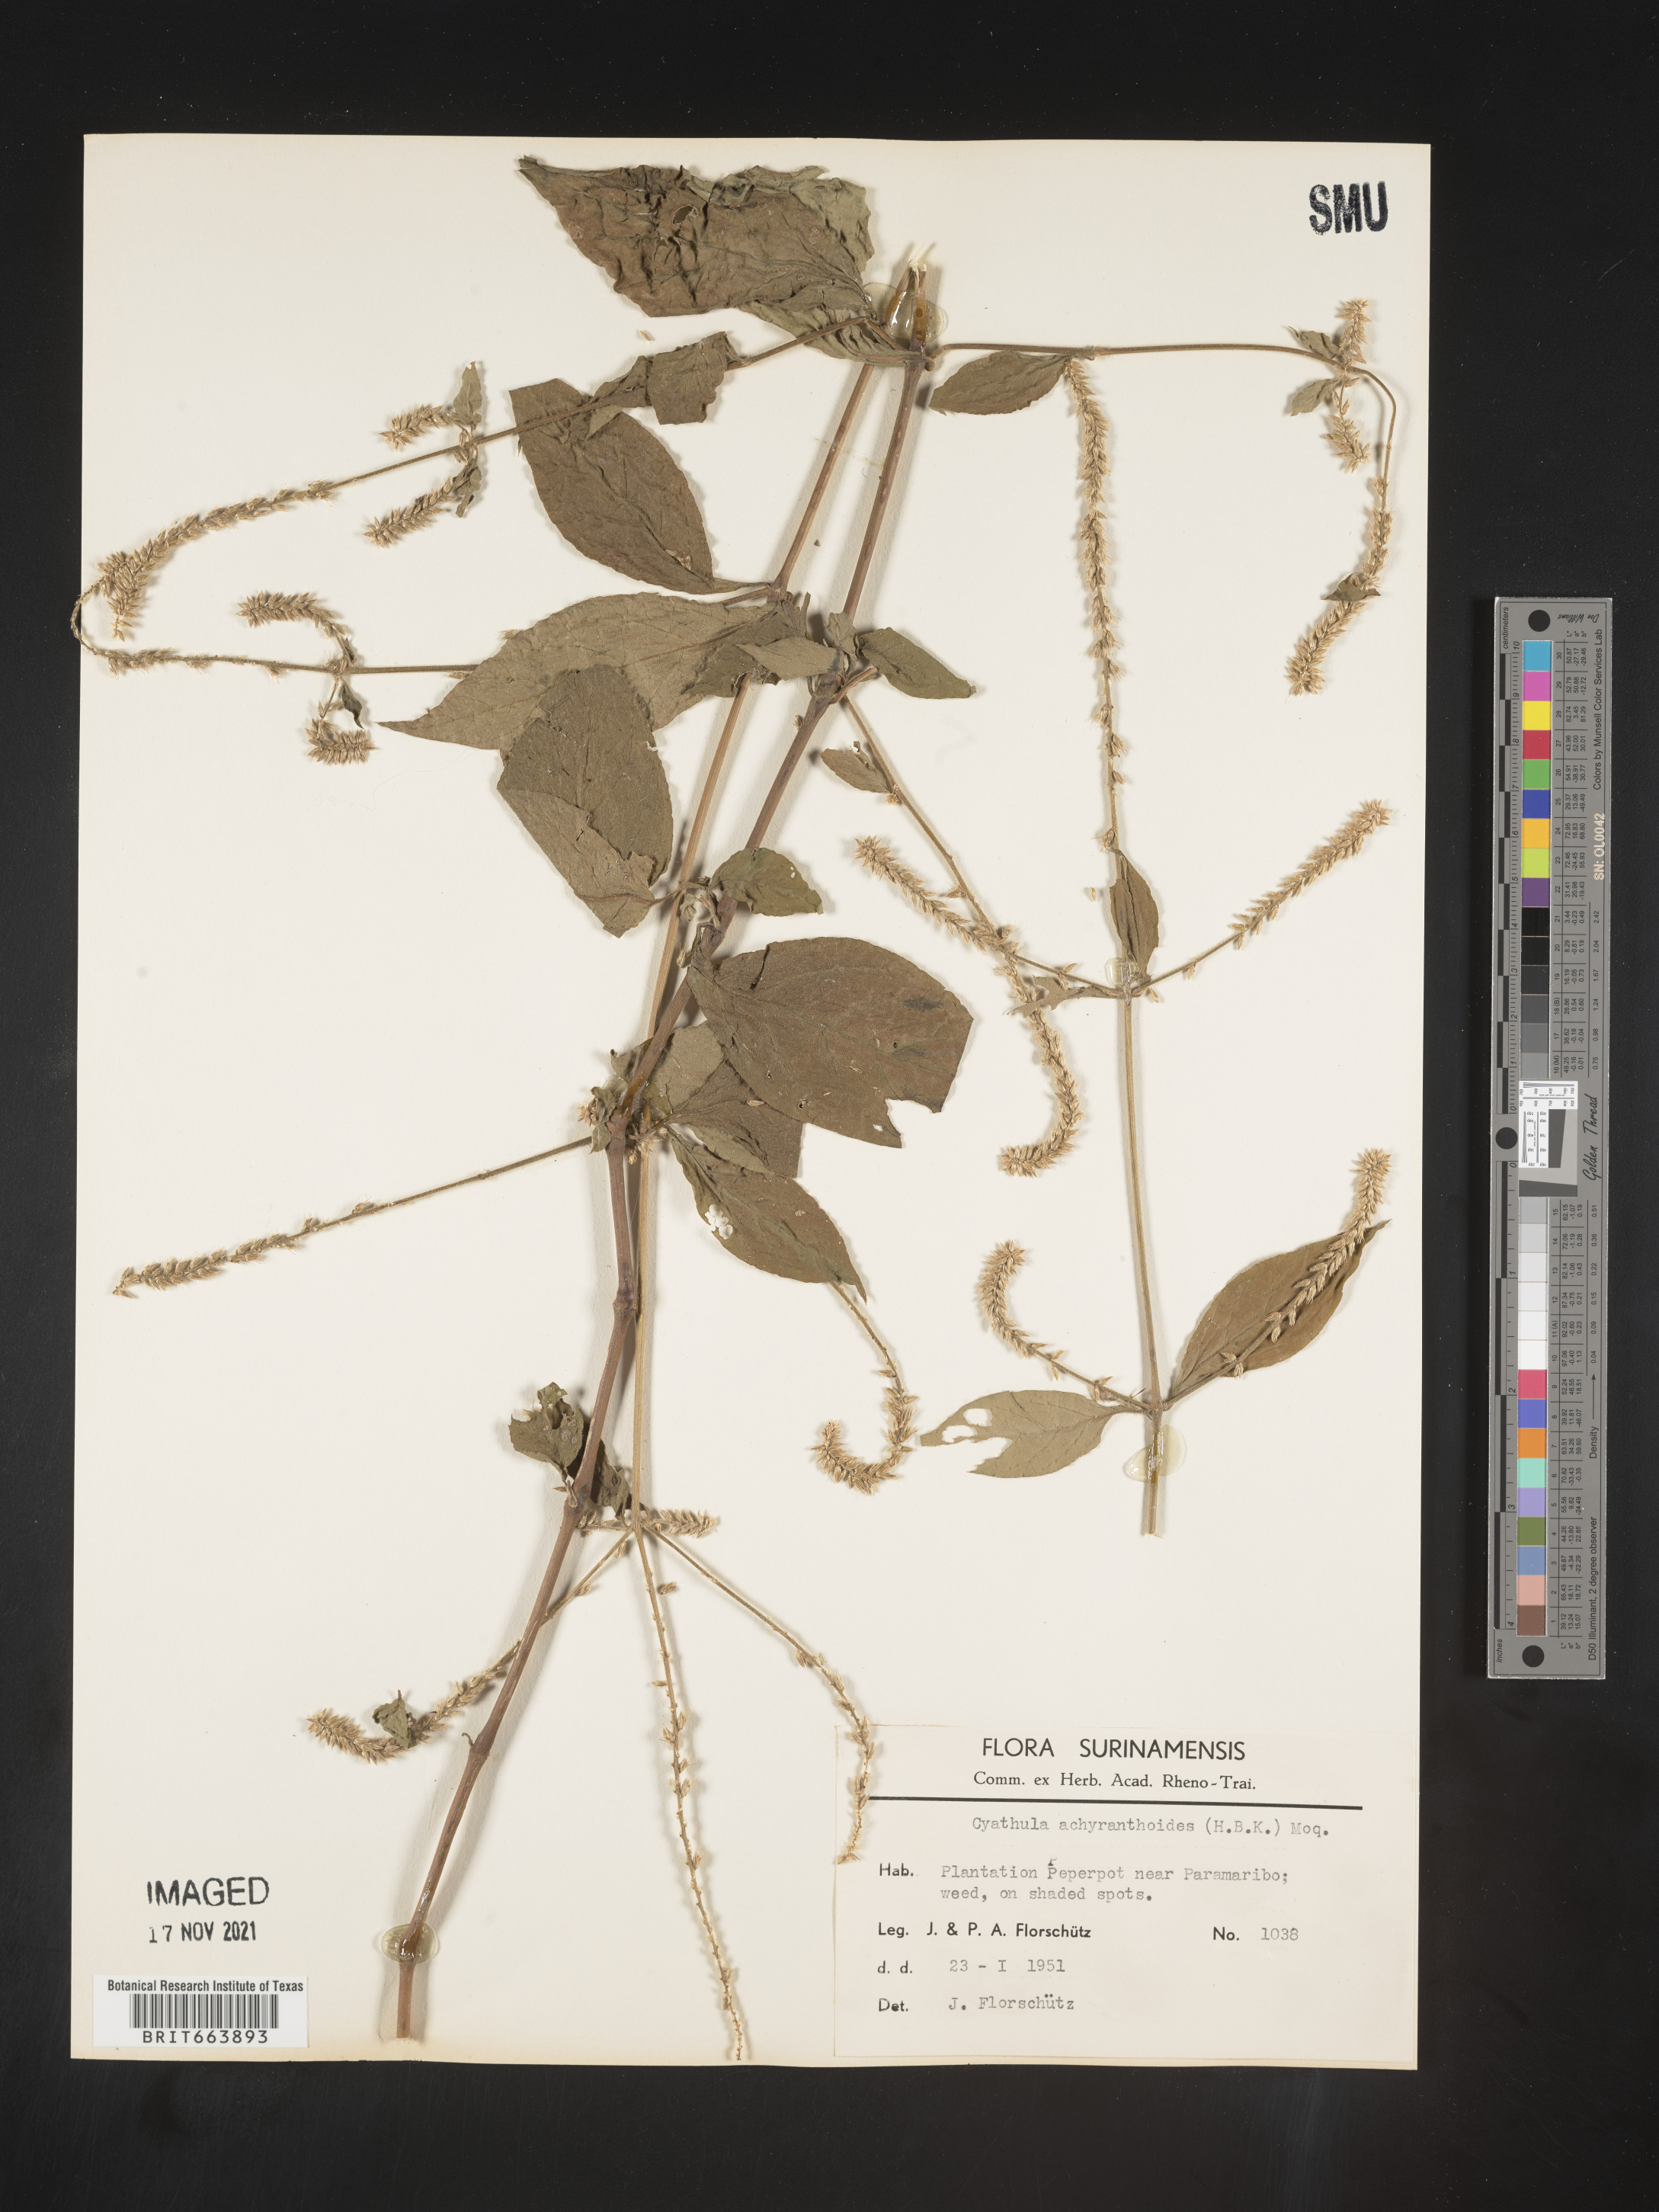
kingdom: Plantae
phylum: Tracheophyta
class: Magnoliopsida
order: Caryophyllales
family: Amaranthaceae
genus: Cyathula
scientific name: Cyathula
